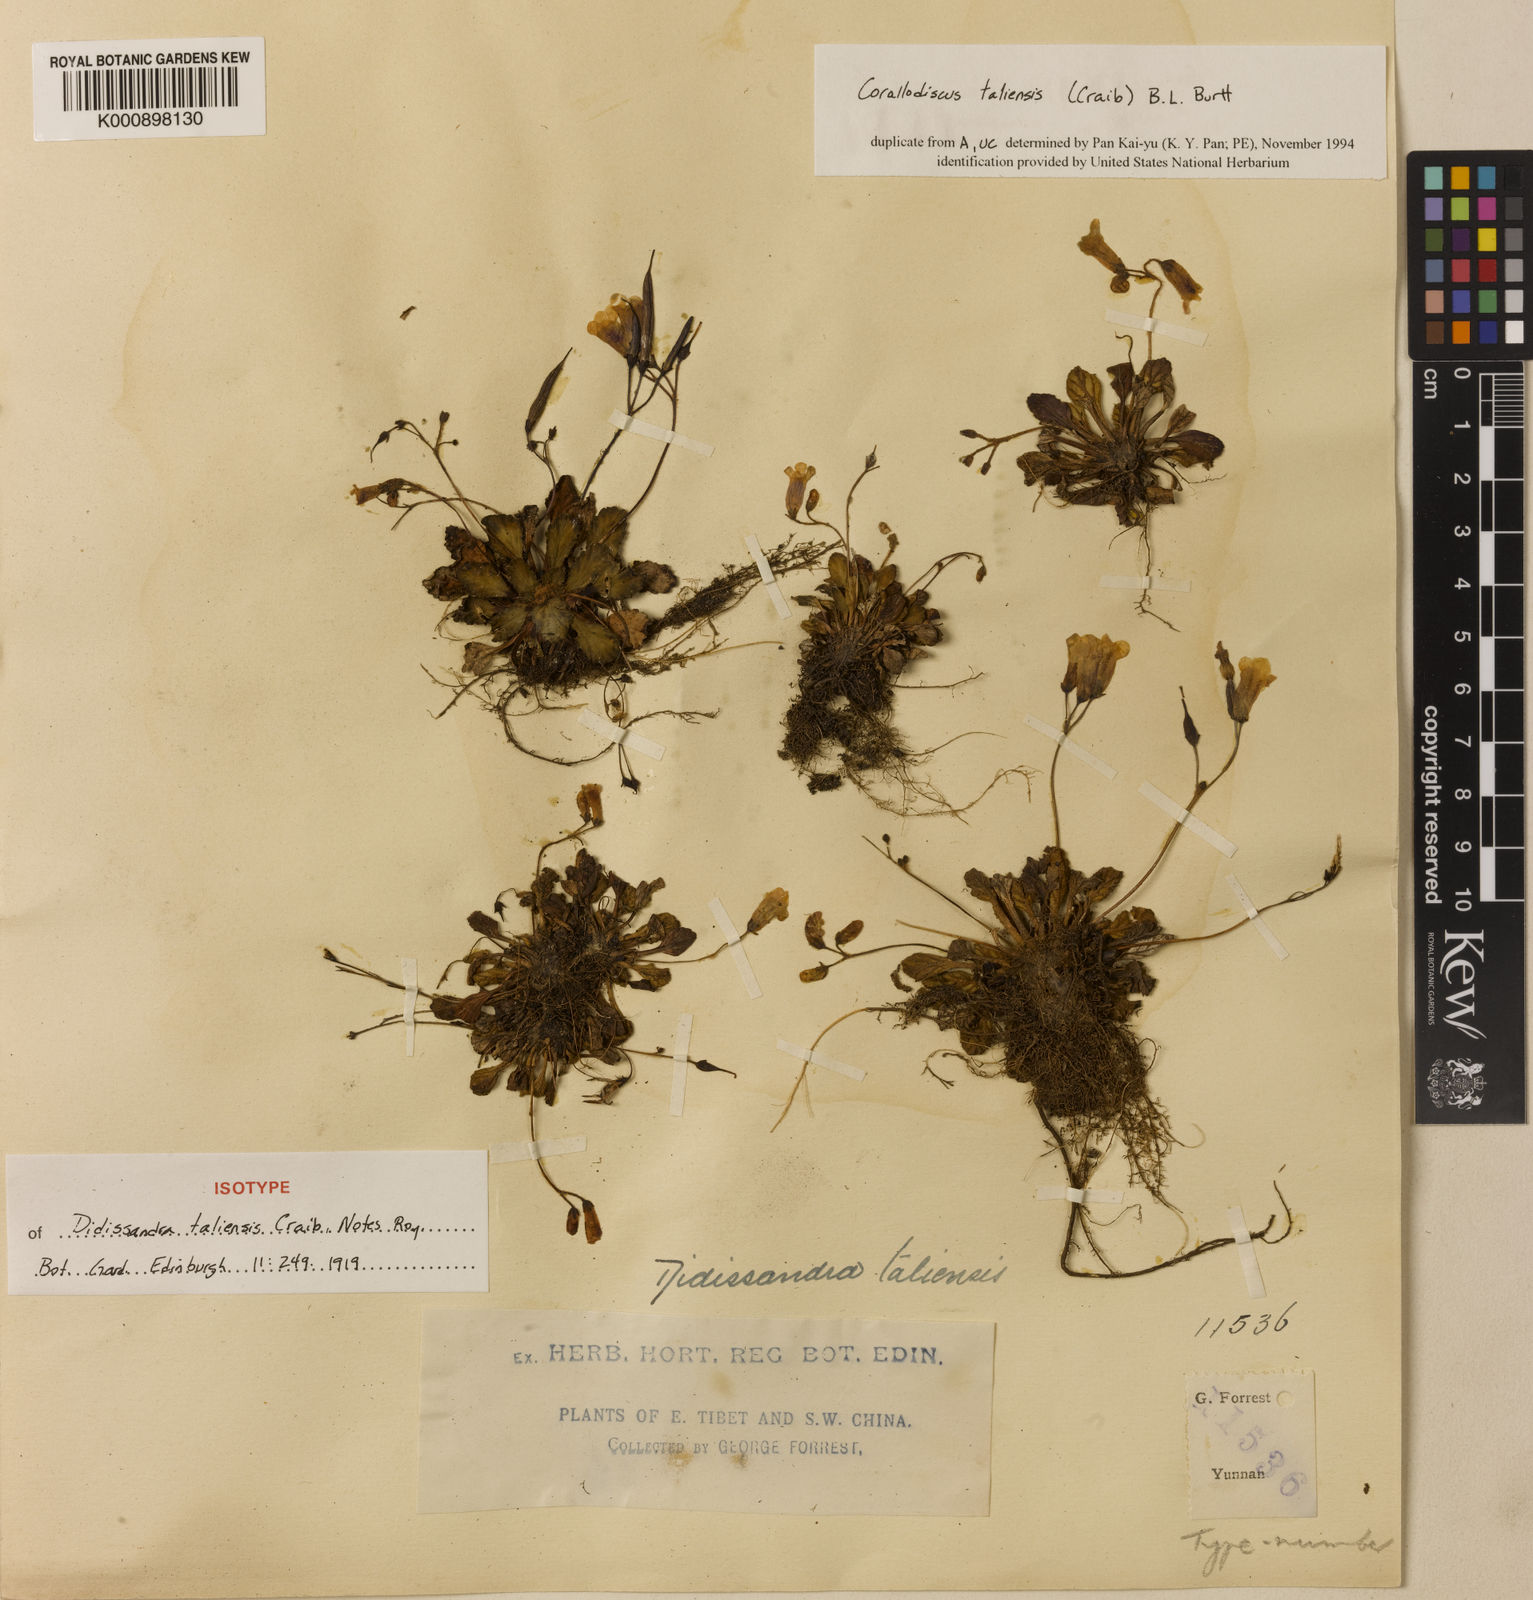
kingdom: Plantae
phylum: Tracheophyta
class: Magnoliopsida
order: Lamiales
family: Gesneriaceae
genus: Corallodiscus
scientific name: Corallodiscus lanuginosus
